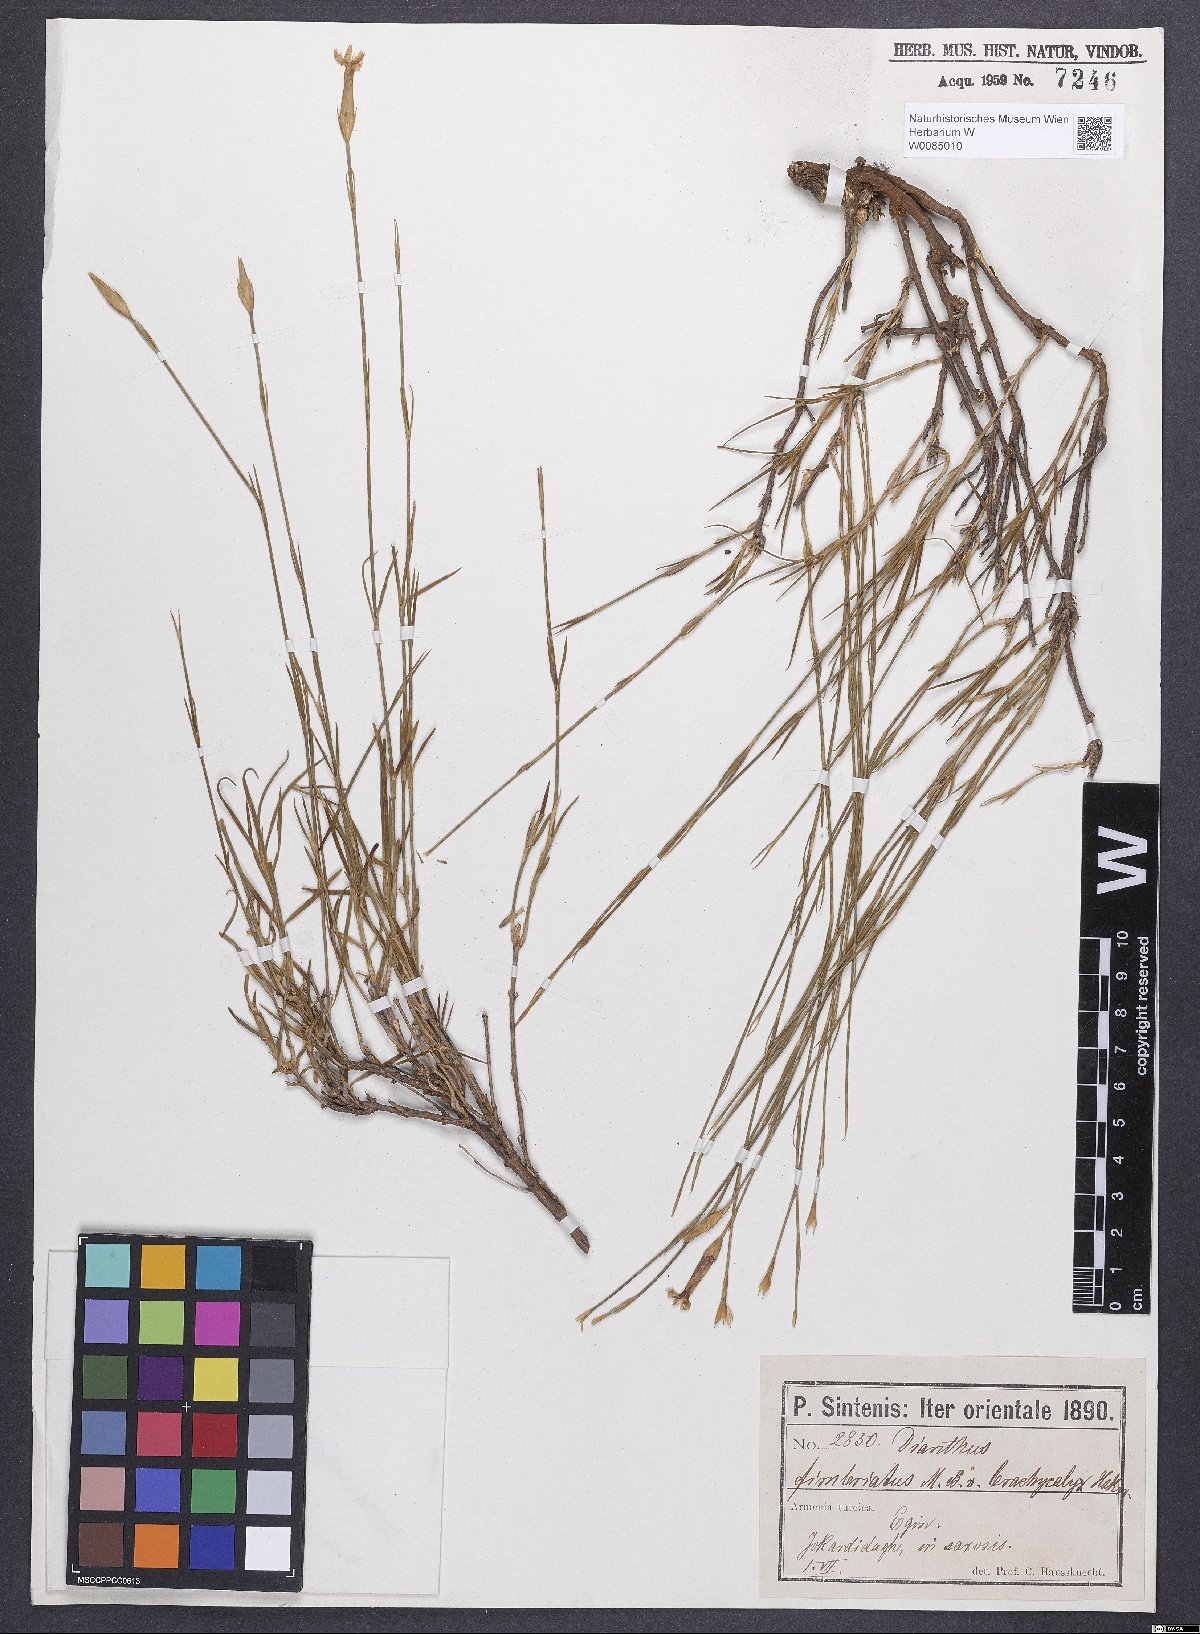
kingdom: Plantae
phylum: Tracheophyta
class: Magnoliopsida
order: Caryophyllales
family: Caryophyllaceae
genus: Dianthus
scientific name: Dianthus broteri
